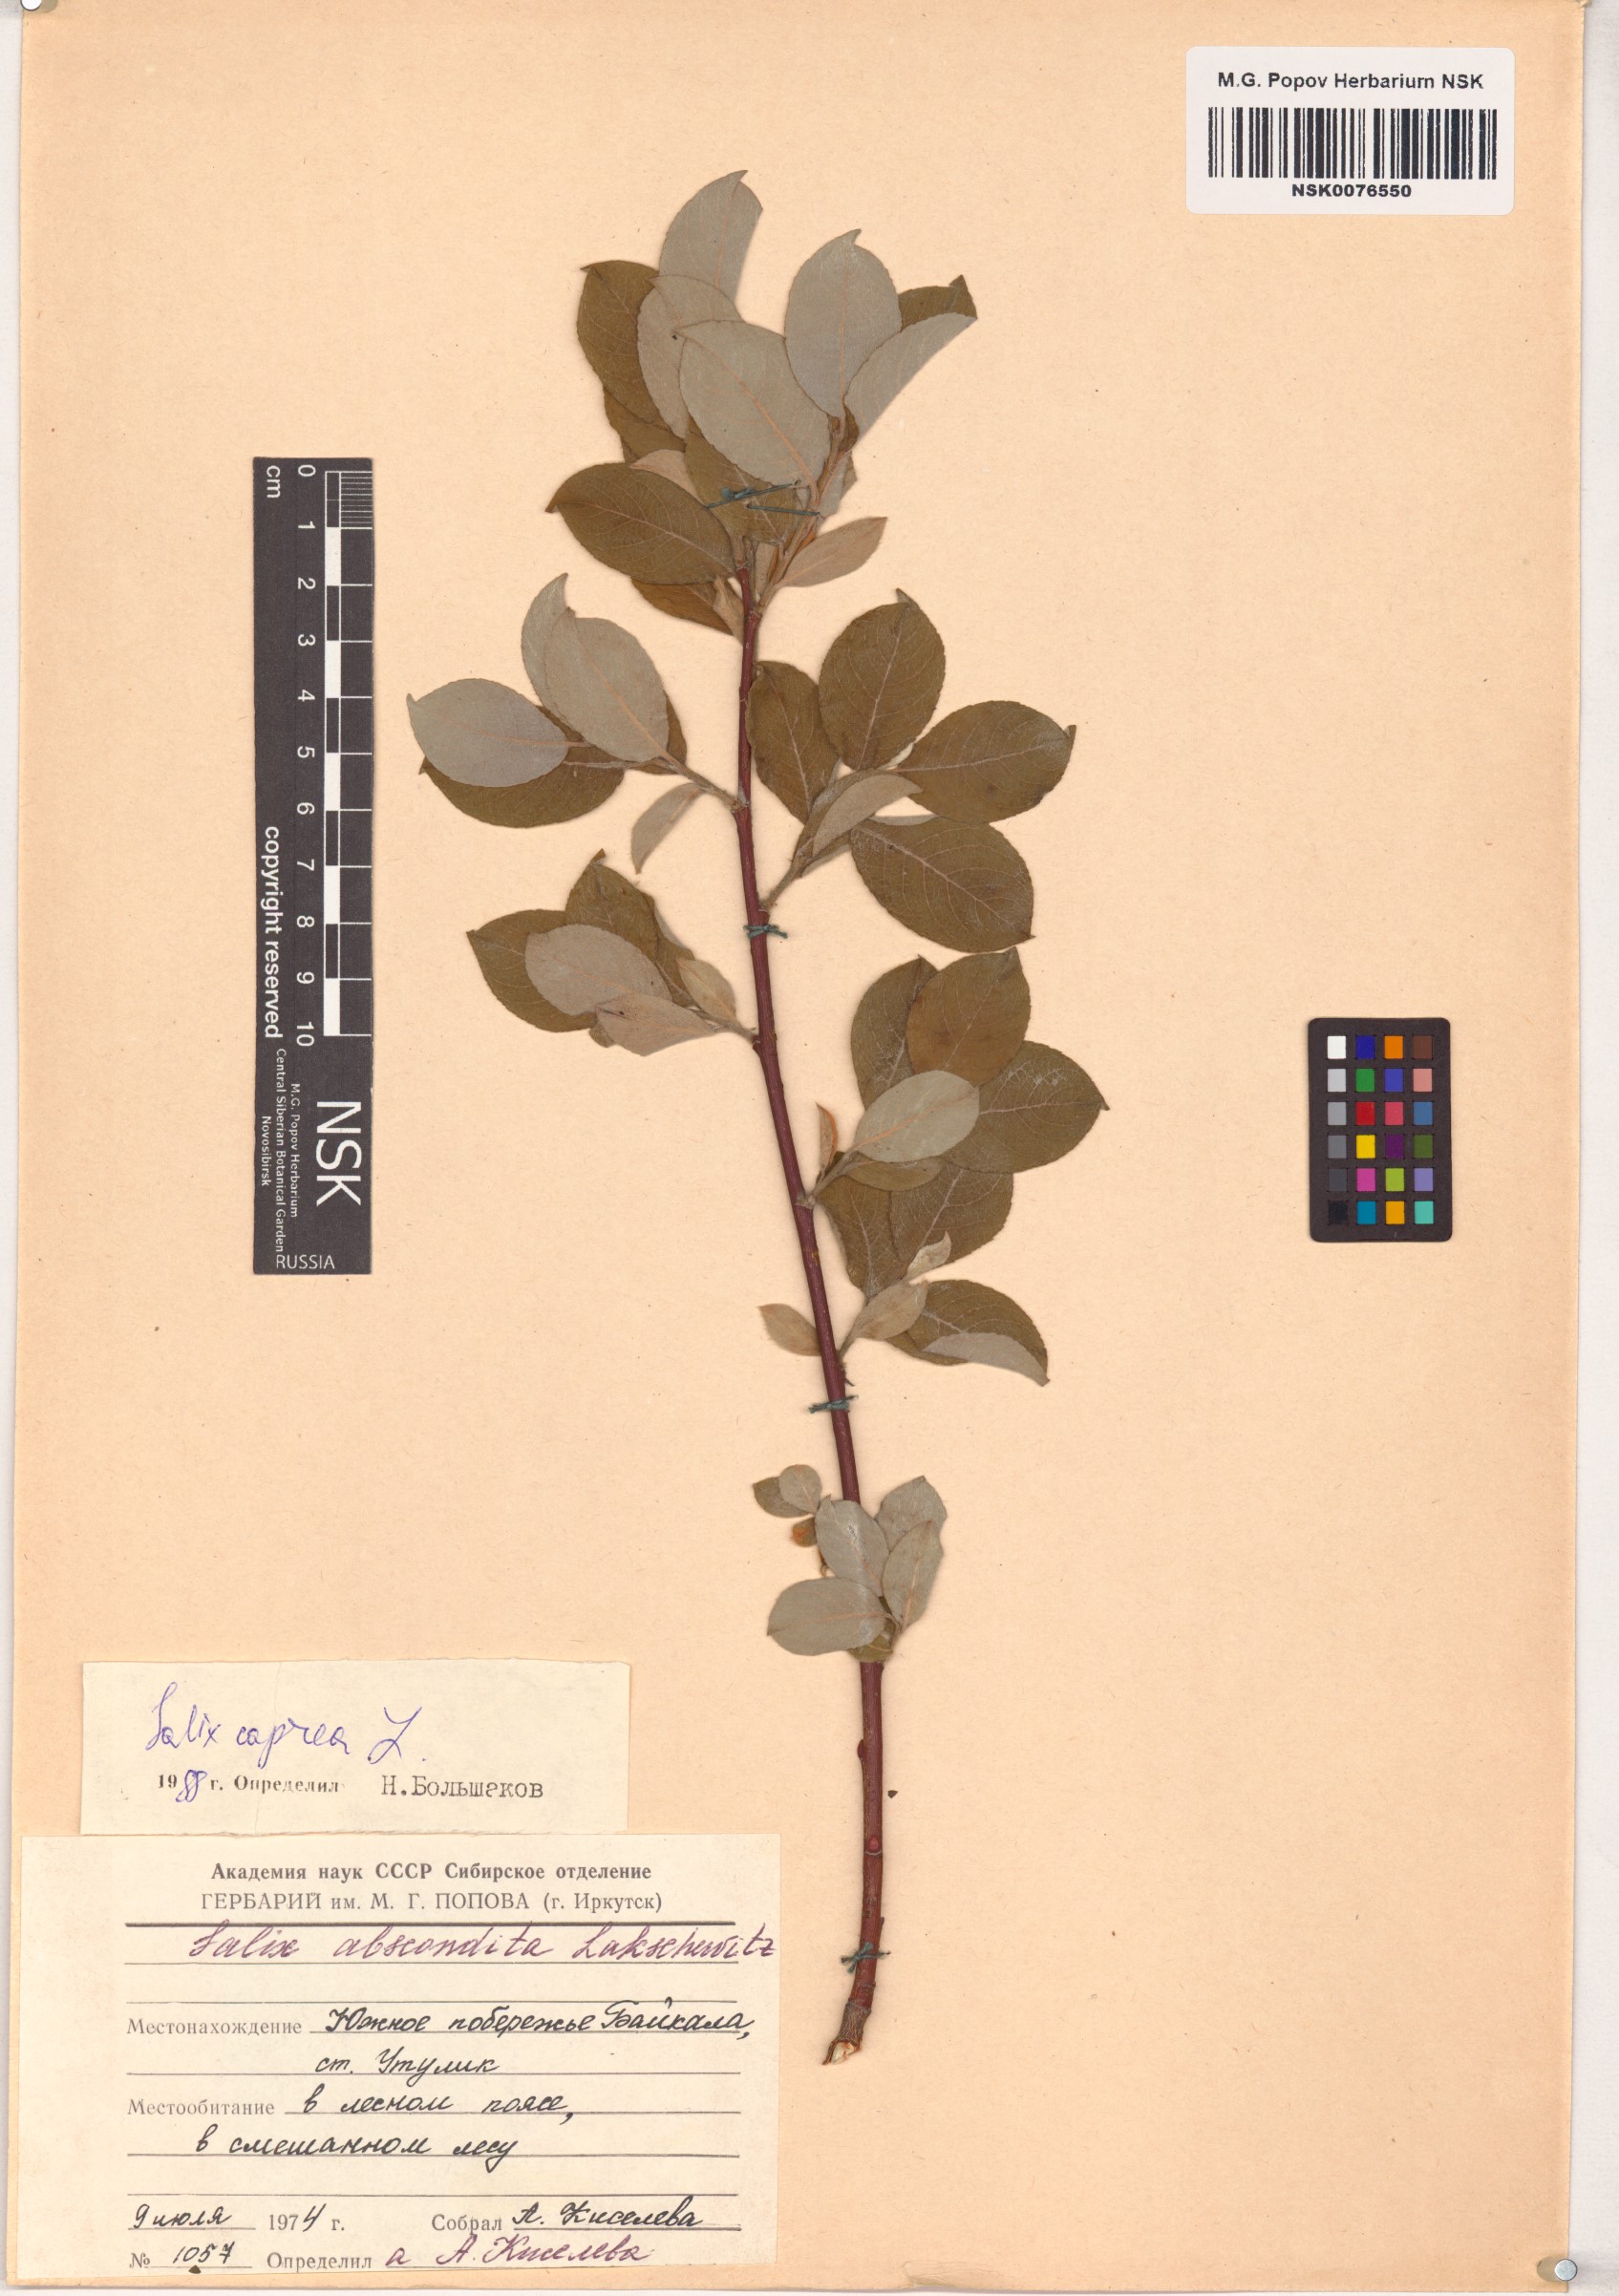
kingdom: Plantae
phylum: Tracheophyta
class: Magnoliopsida
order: Malpighiales
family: Salicaceae
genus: Salix
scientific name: Salix caprea
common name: Goat willow
